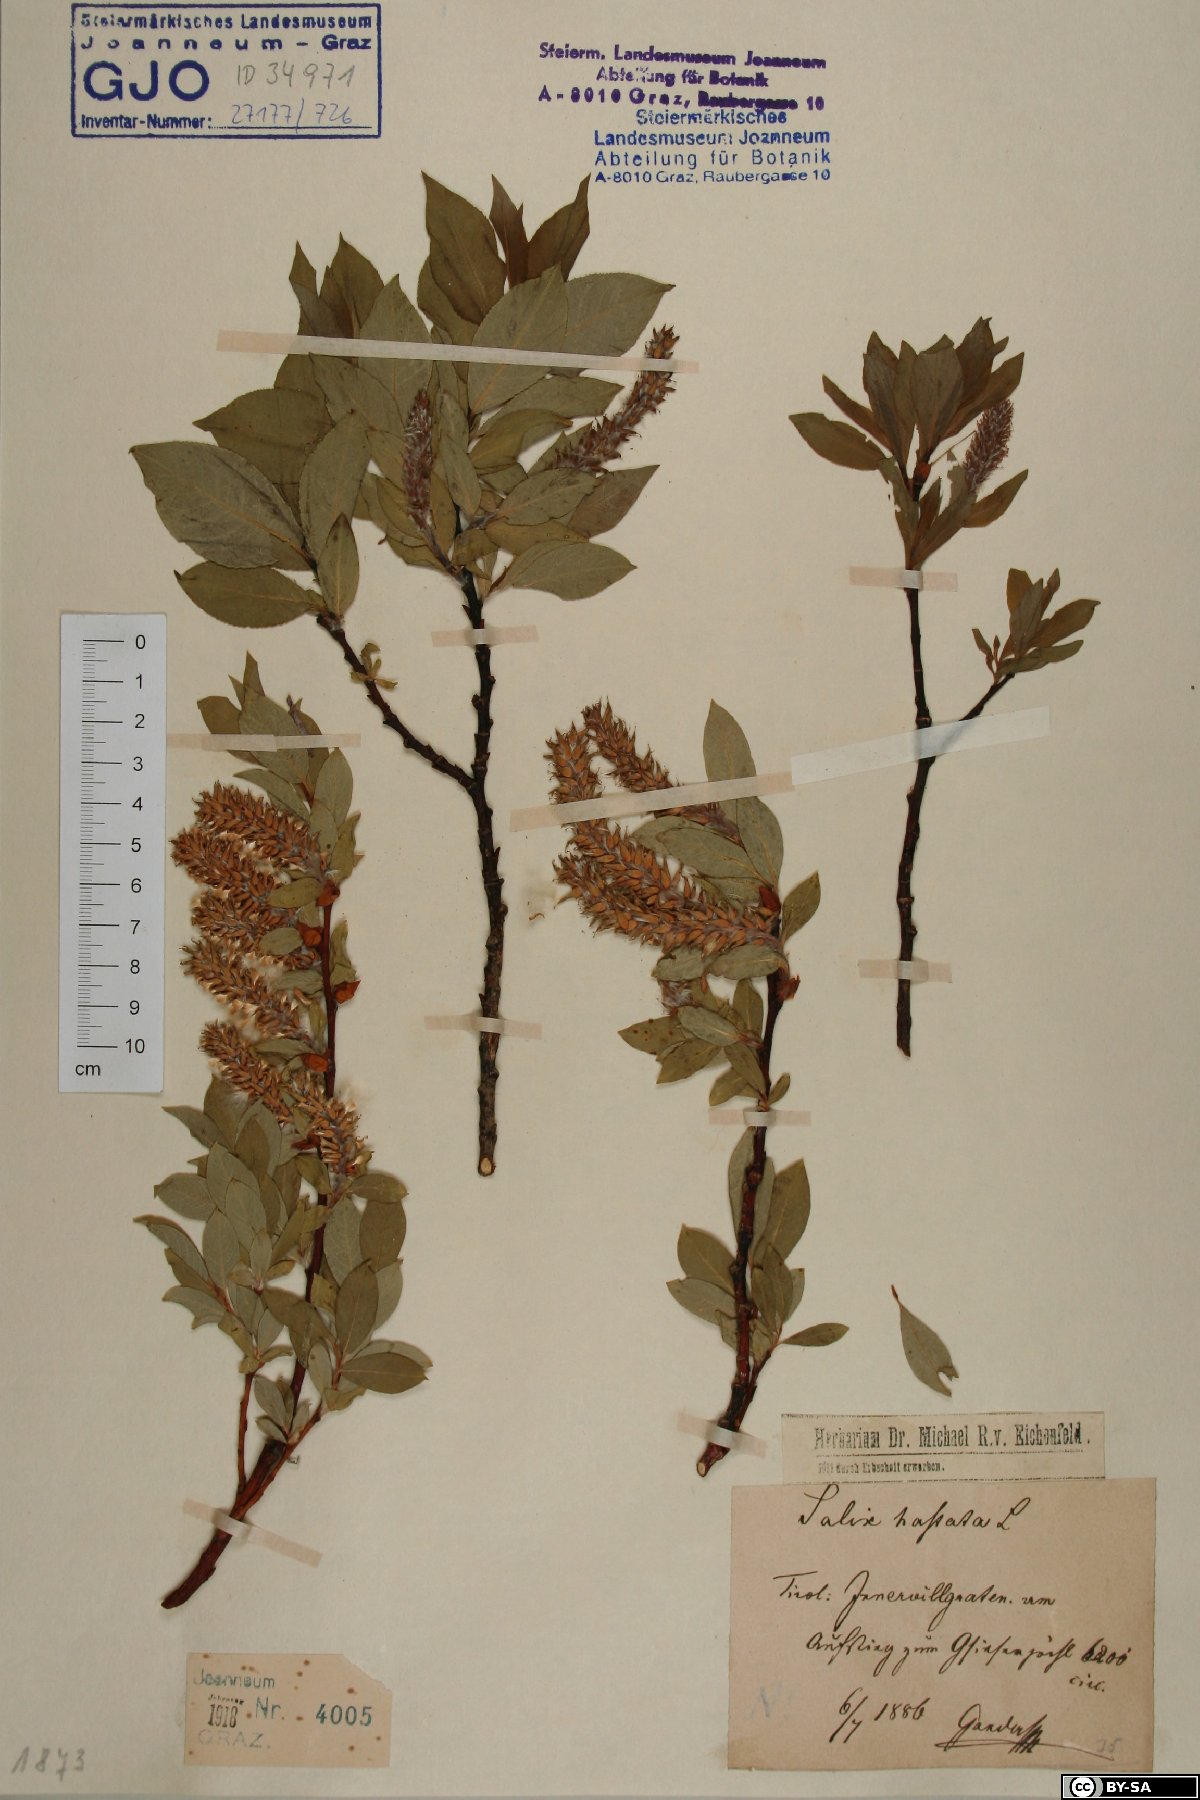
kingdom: Plantae
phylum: Tracheophyta
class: Magnoliopsida
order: Malpighiales
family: Salicaceae
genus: Salix
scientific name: Salix hastata
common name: Halberd willow
